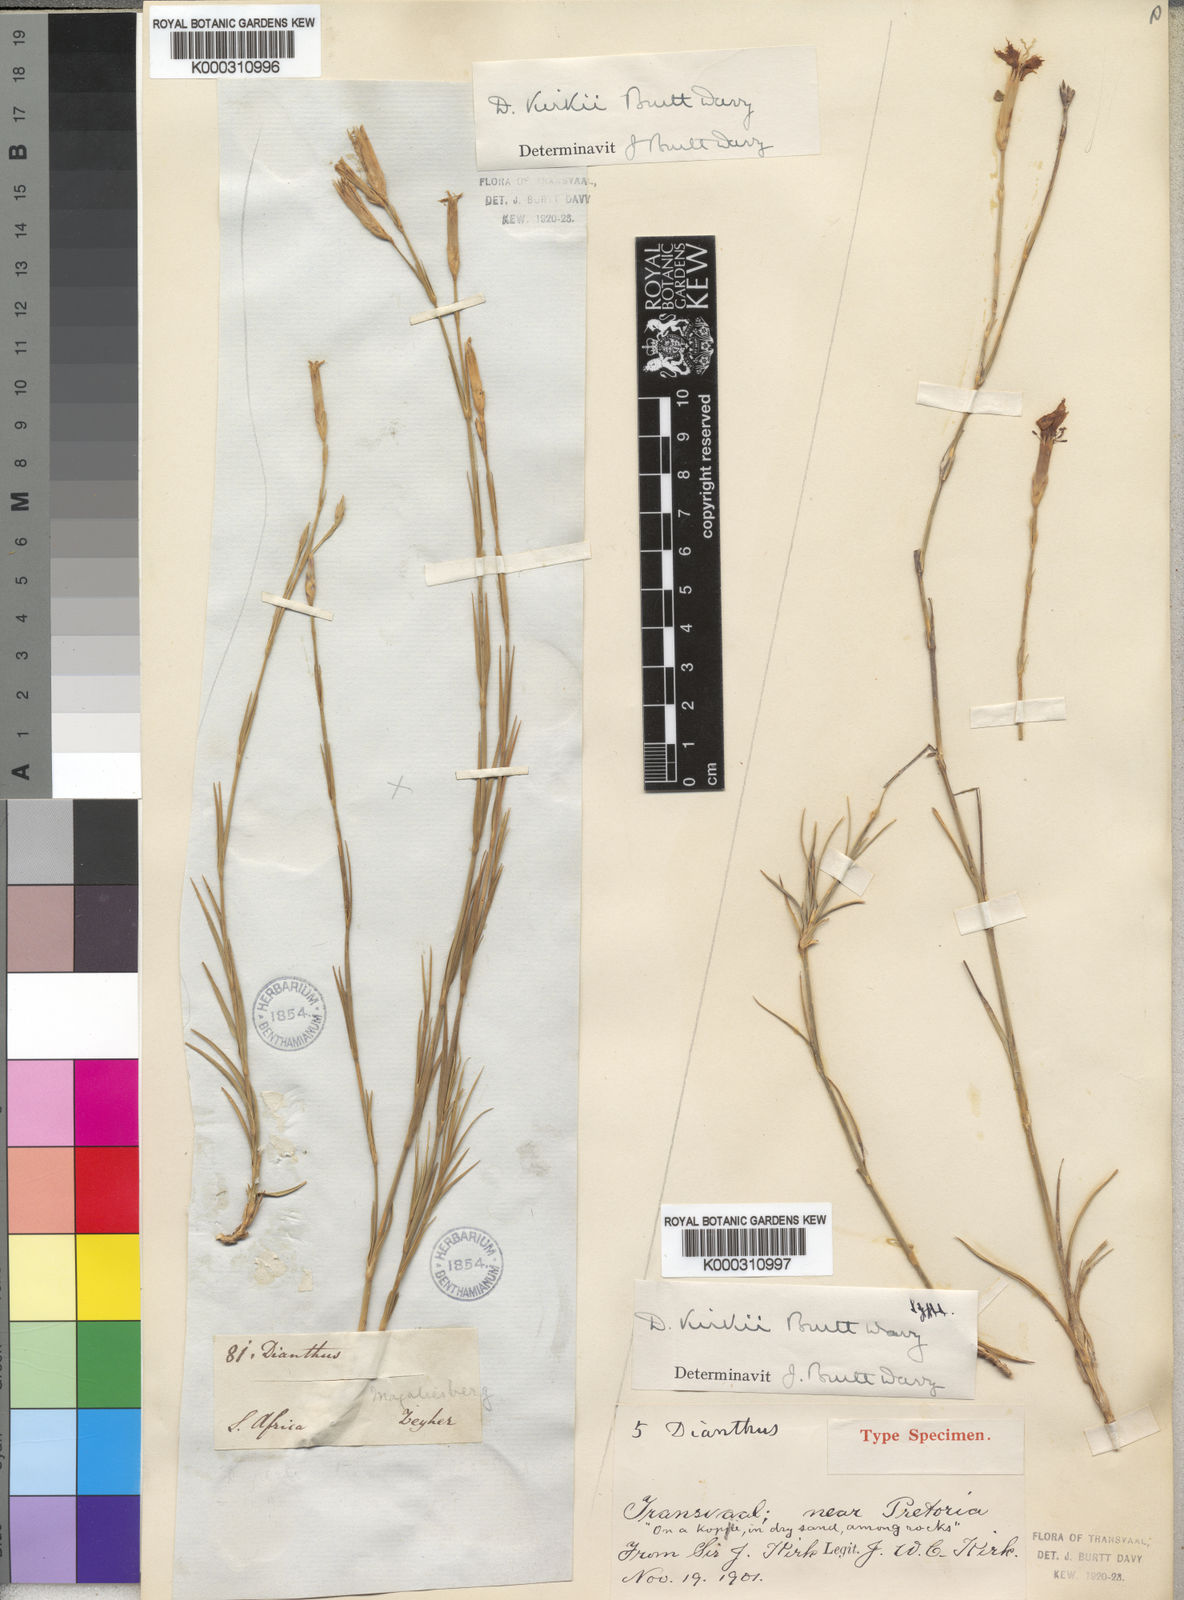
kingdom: Plantae
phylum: Tracheophyta
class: Magnoliopsida
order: Caryophyllales
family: Caryophyllaceae
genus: Dianthus
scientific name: Dianthus moviensis
